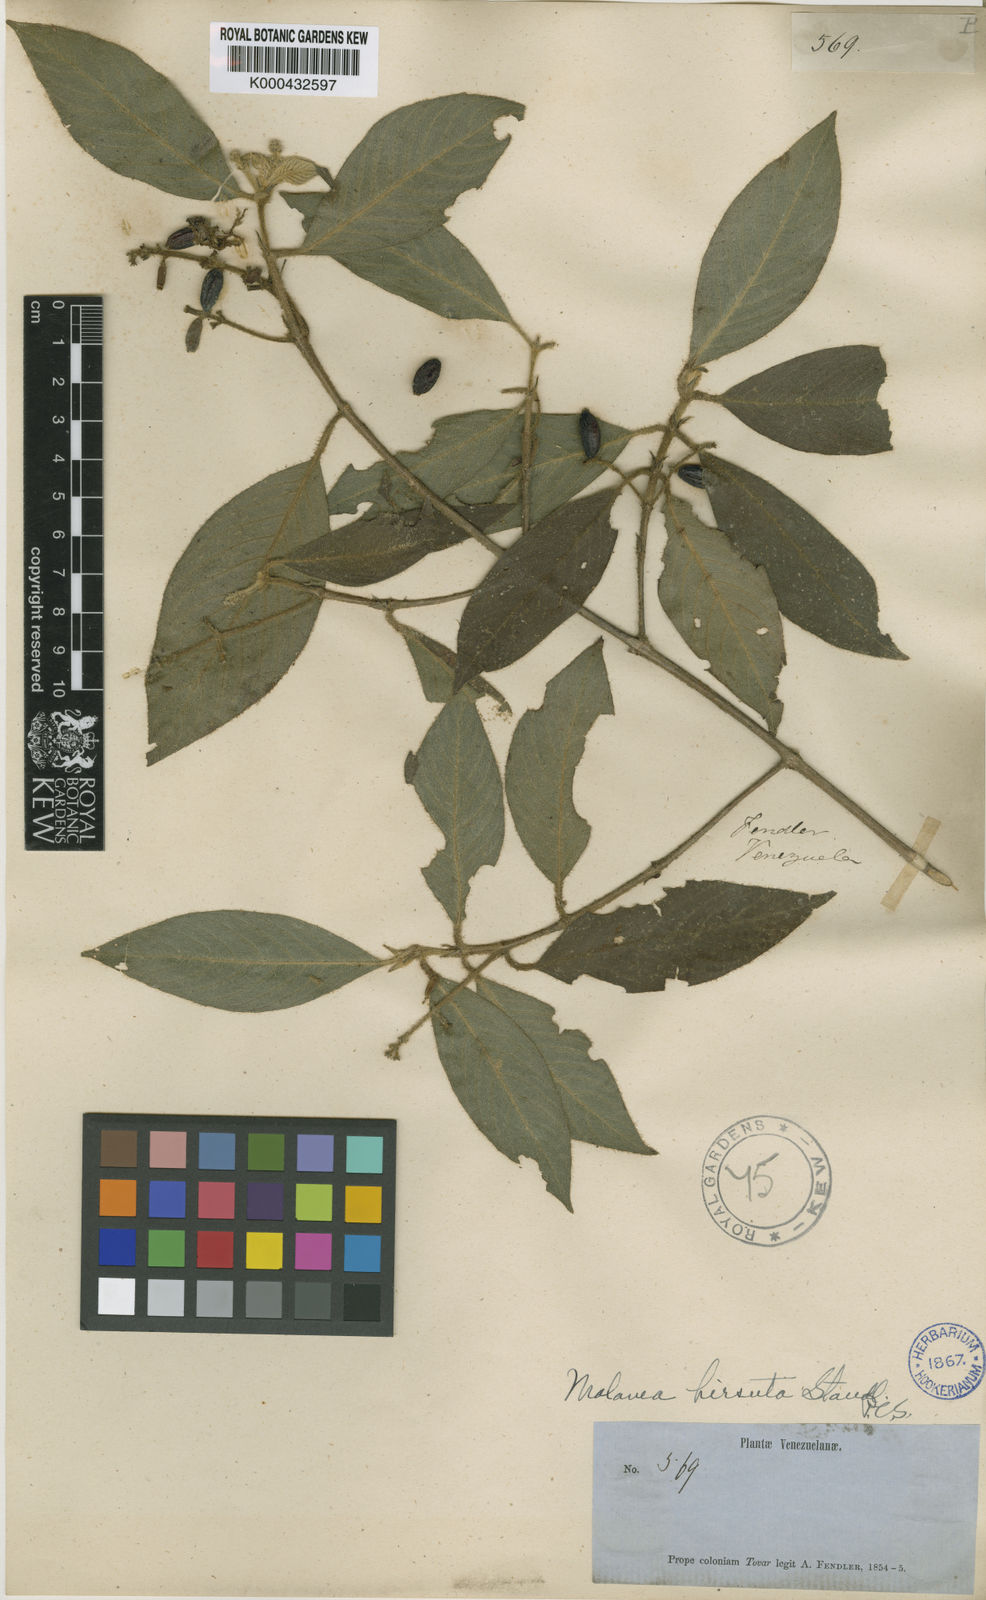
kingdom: Plantae
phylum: Tracheophyta
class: Magnoliopsida
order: Gentianales
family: Rubiaceae
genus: Malanea
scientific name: Malanea hirsuta
